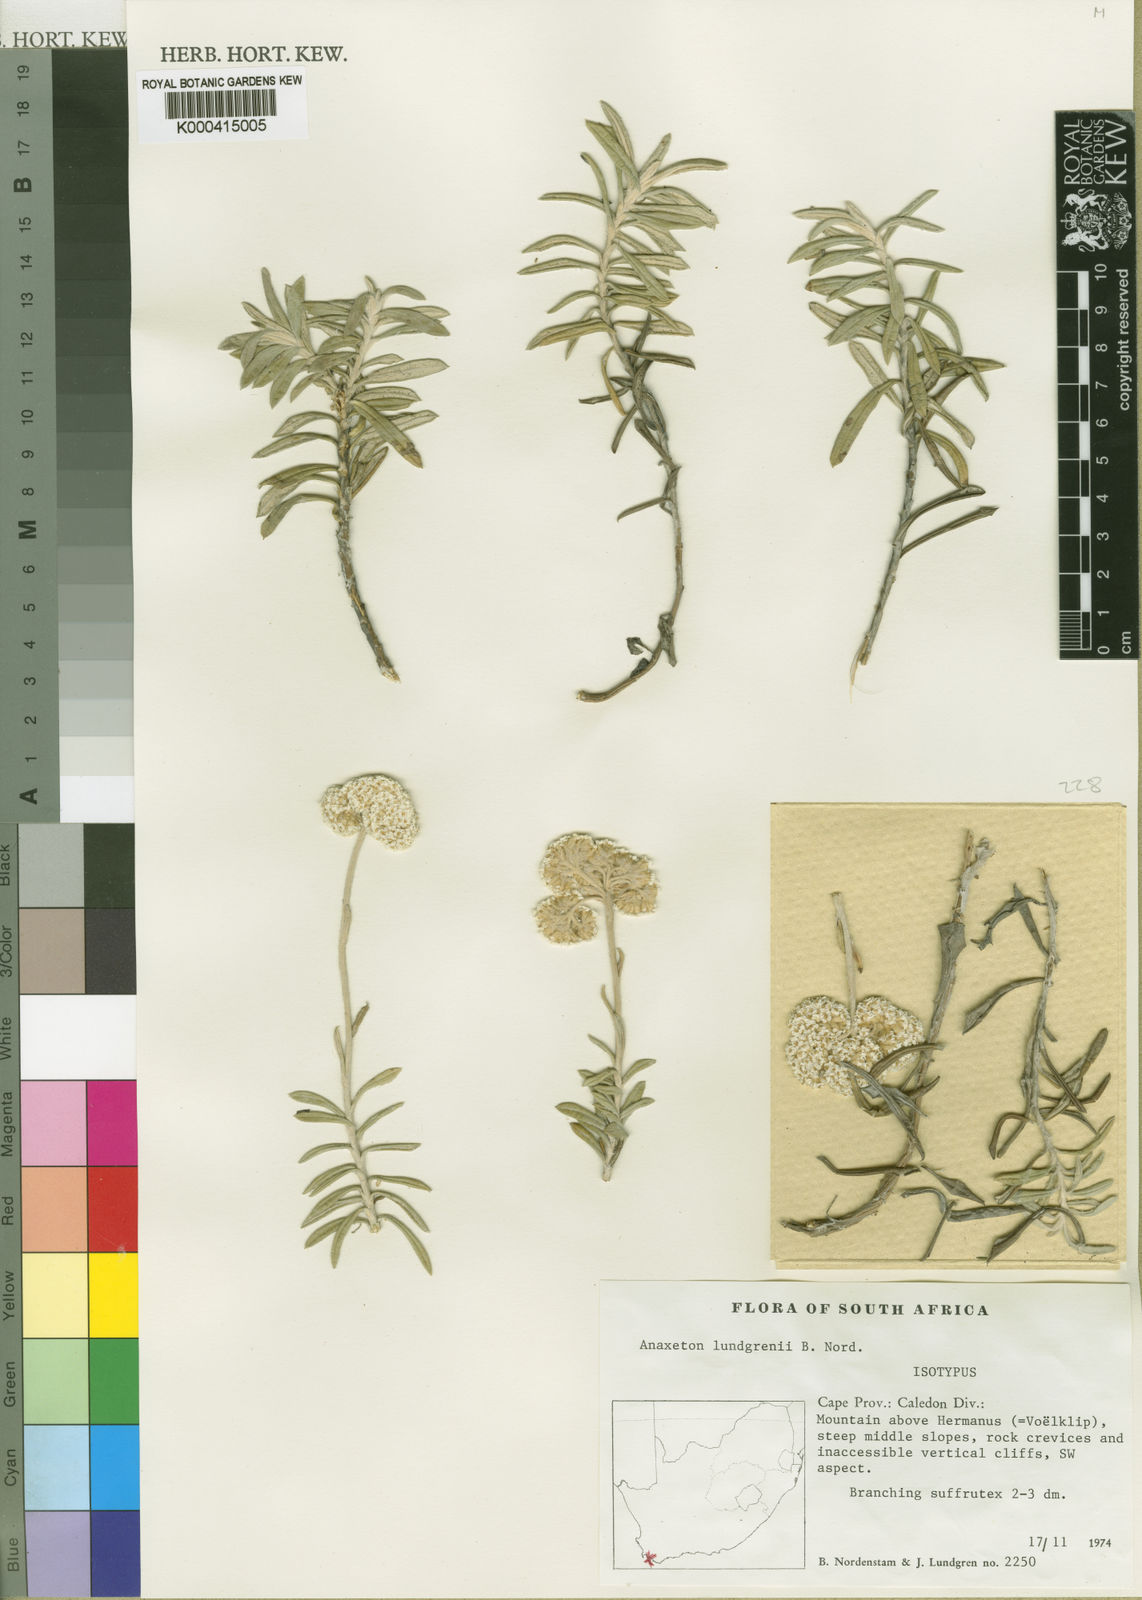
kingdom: Plantae
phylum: Tracheophyta
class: Magnoliopsida
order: Asterales
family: Asteraceae
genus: Anaxeton
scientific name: Anaxeton lundgrenii
